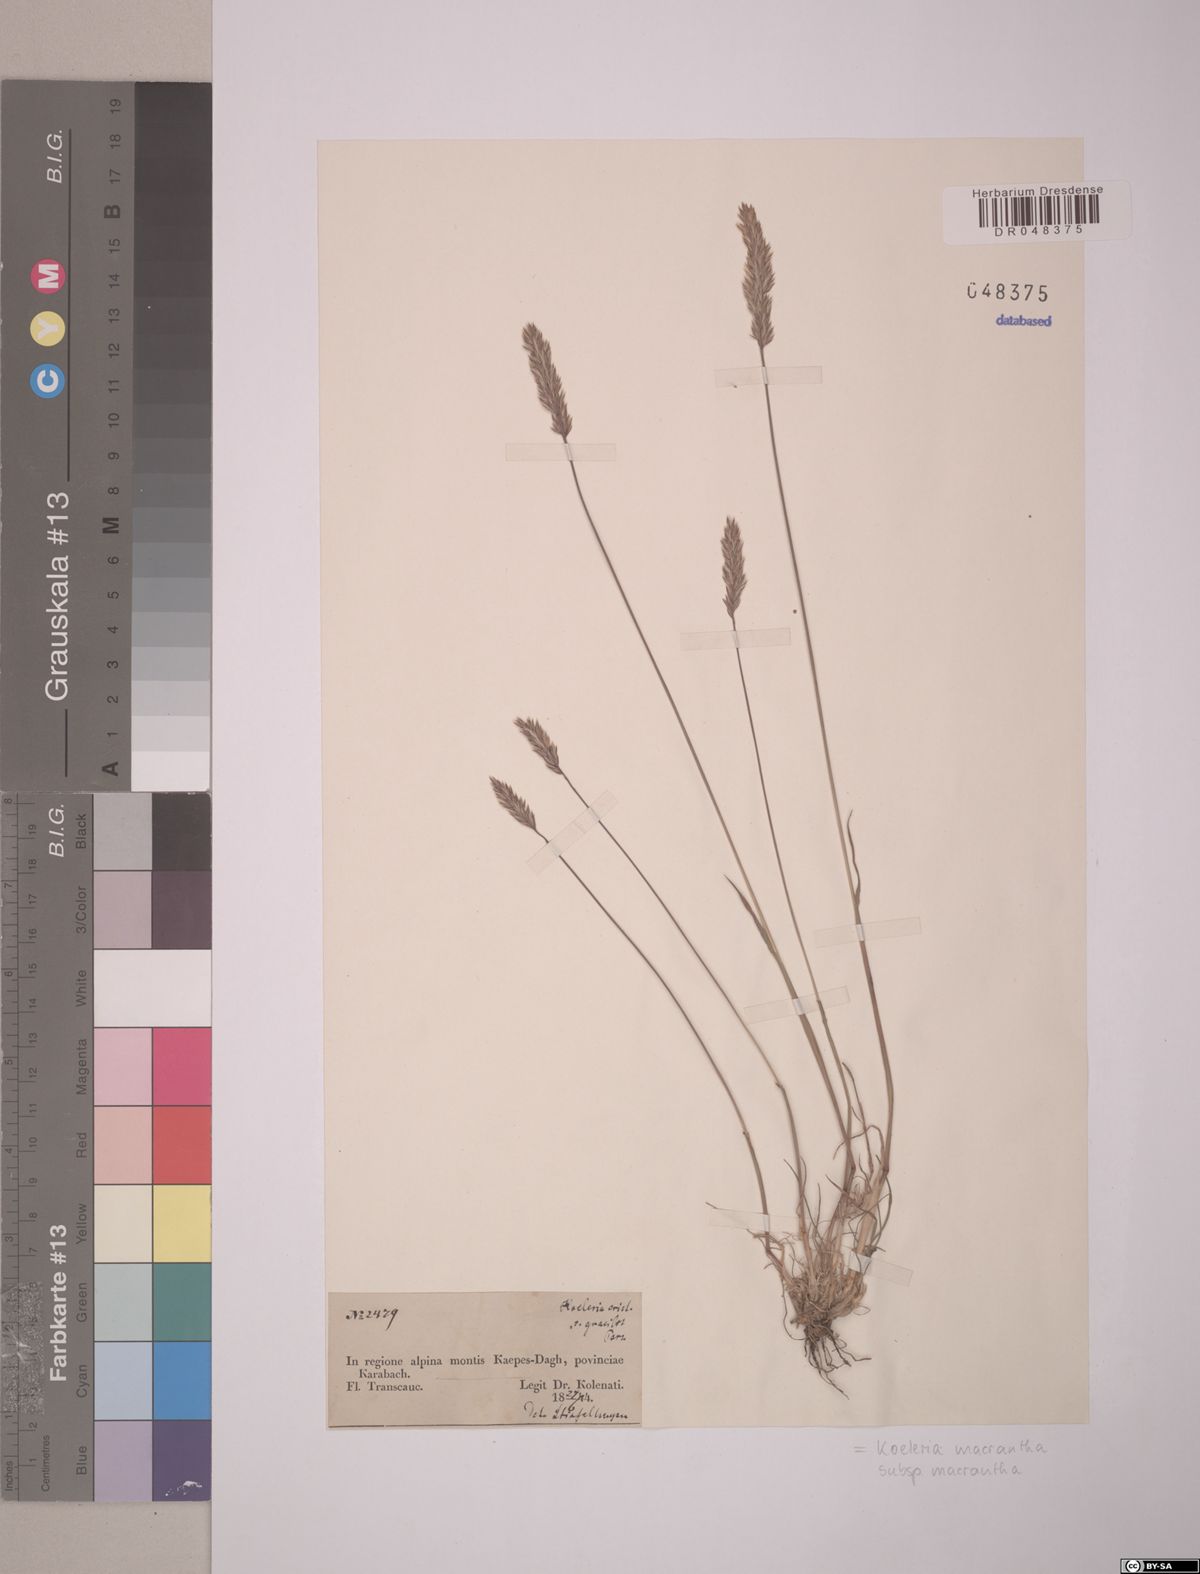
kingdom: Plantae
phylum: Tracheophyta
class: Liliopsida
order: Poales
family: Poaceae
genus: Koeleria
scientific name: Koeleria macrantha
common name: Crested hair-grass
